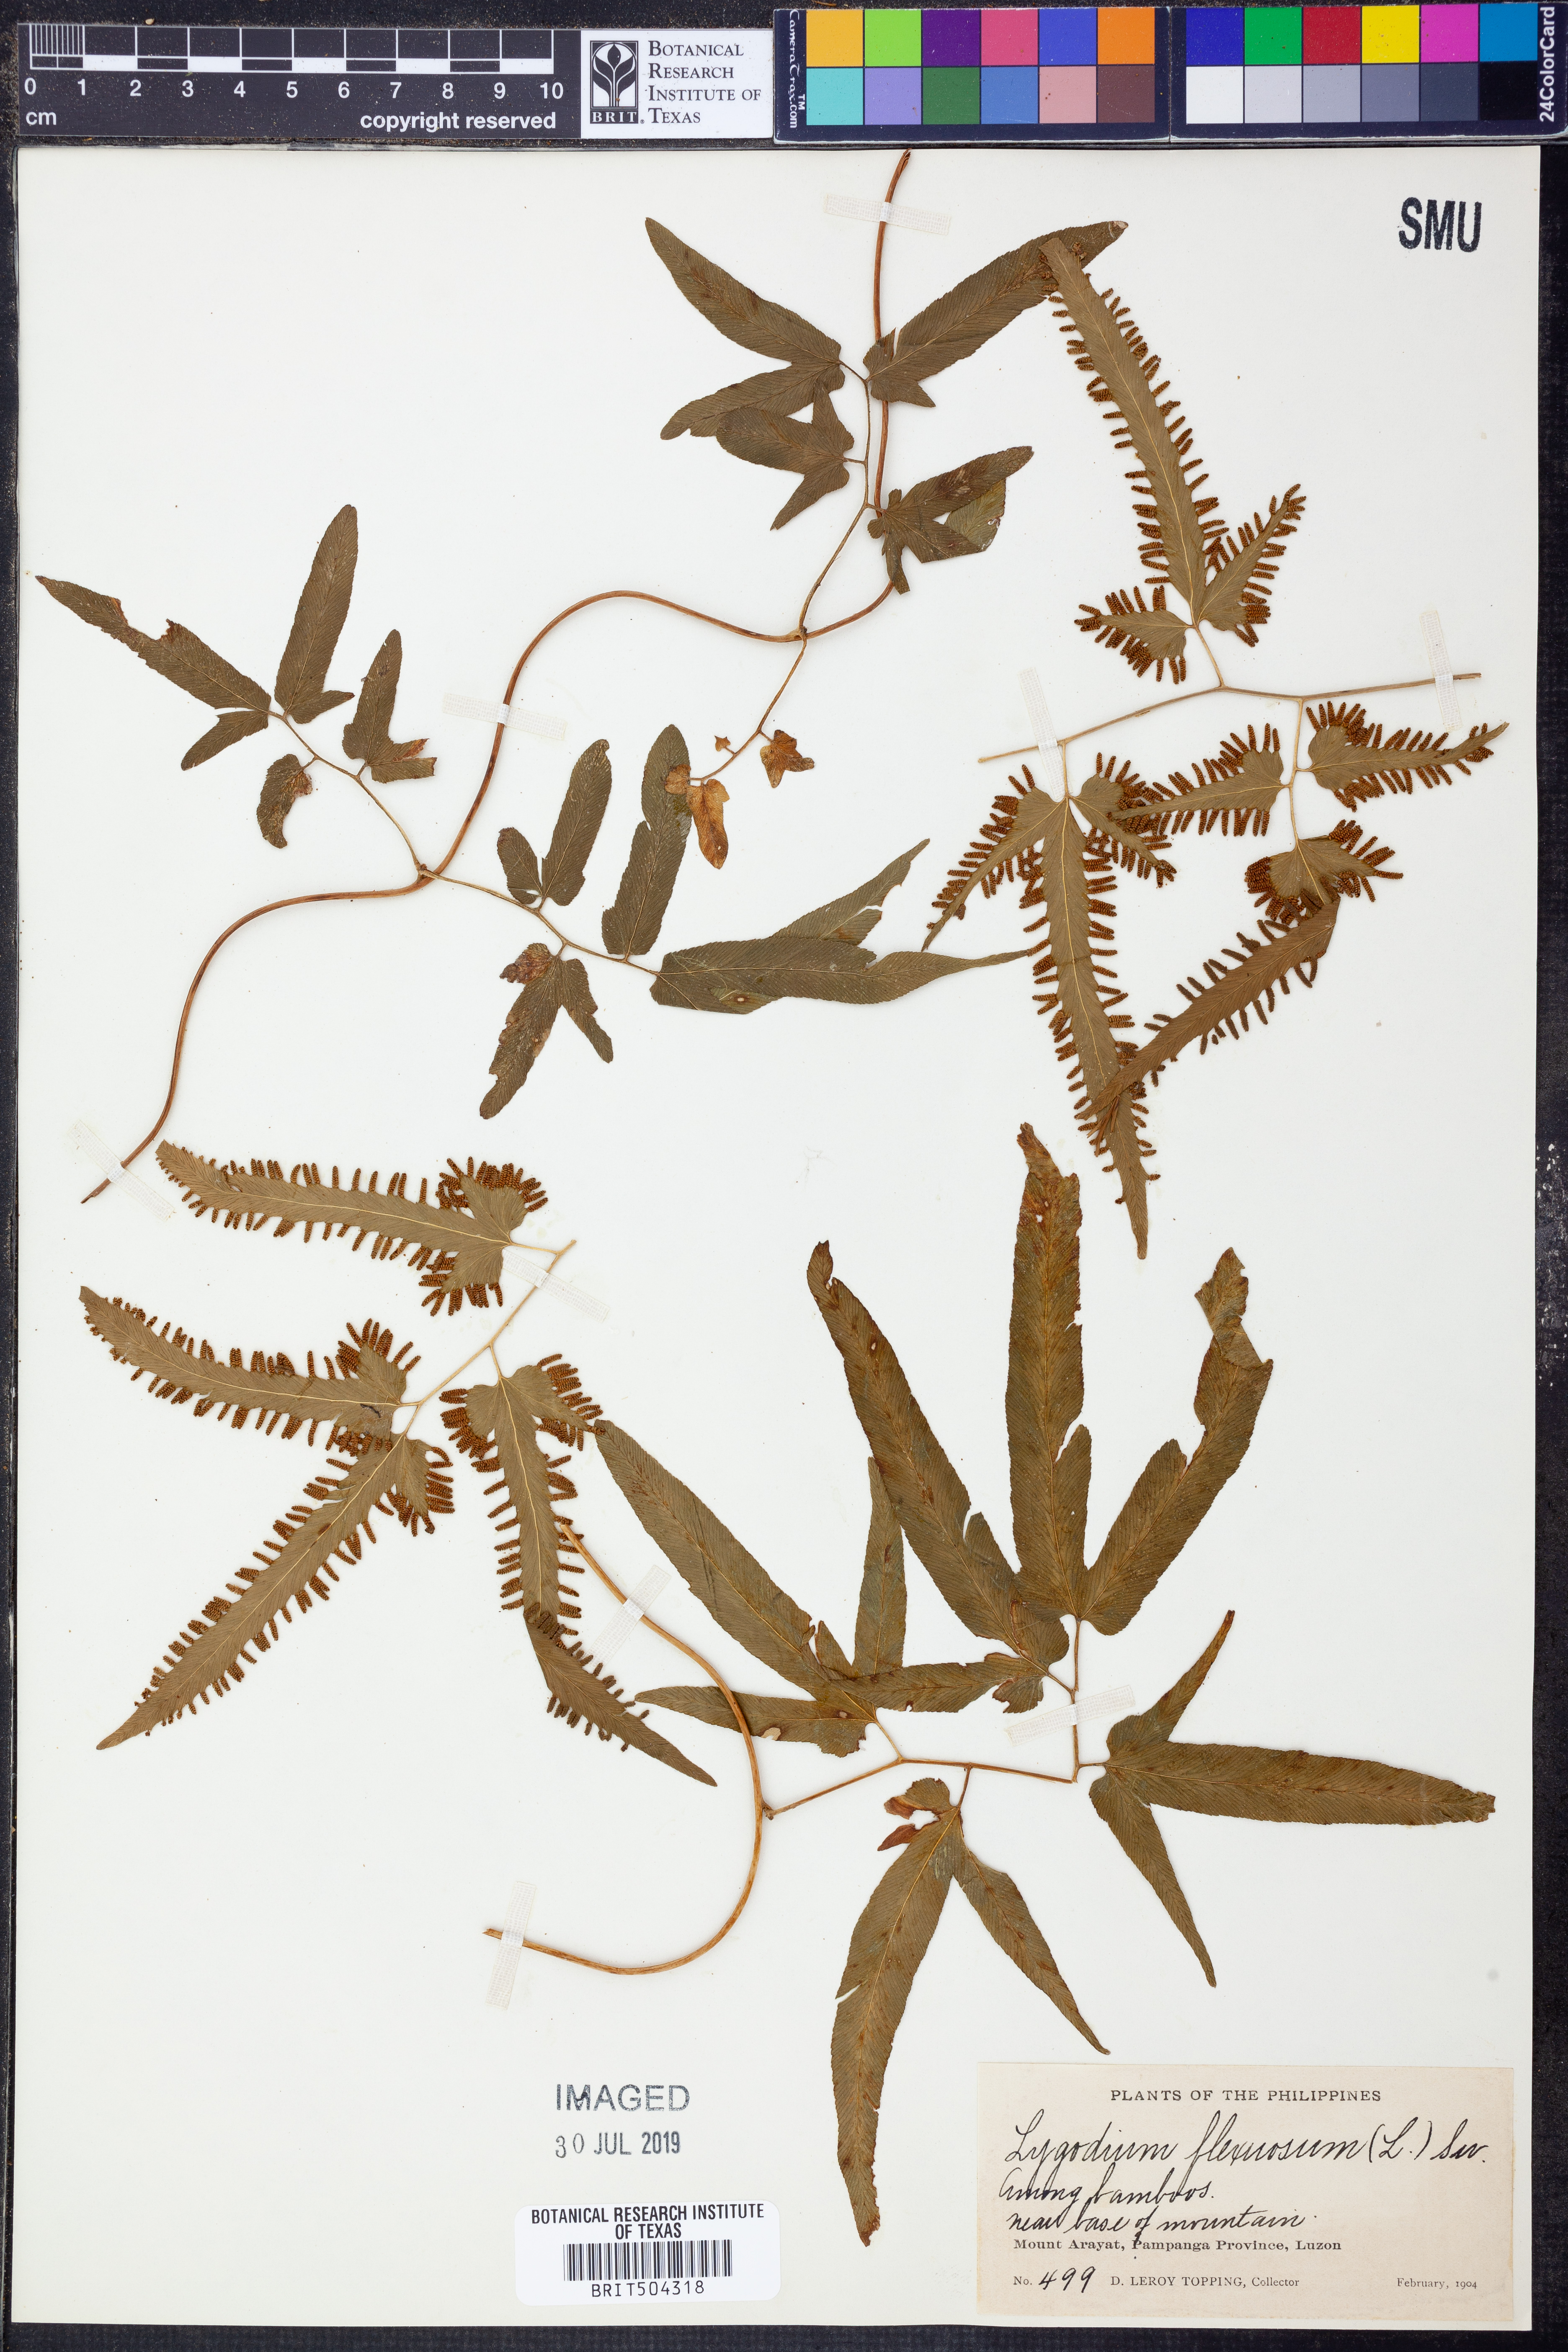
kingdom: Plantae
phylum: Tracheophyta
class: Polypodiopsida
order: Schizaeales
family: Lygodiaceae
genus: Lygodium
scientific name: Lygodium flexuosum
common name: Maidenhair creeper
